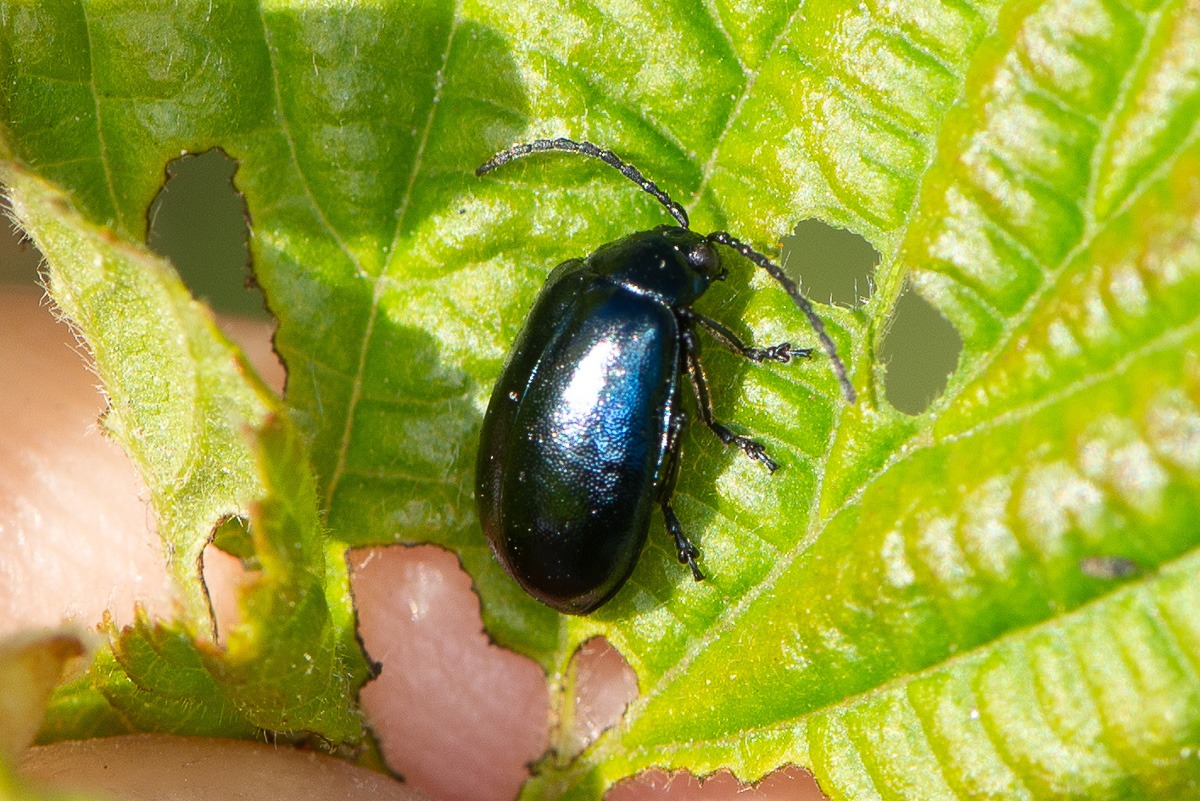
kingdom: Animalia
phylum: Arthropoda
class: Insecta
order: Coleoptera
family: Chrysomelidae
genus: Agelastica
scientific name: Agelastica alni
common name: Ellebladbille
